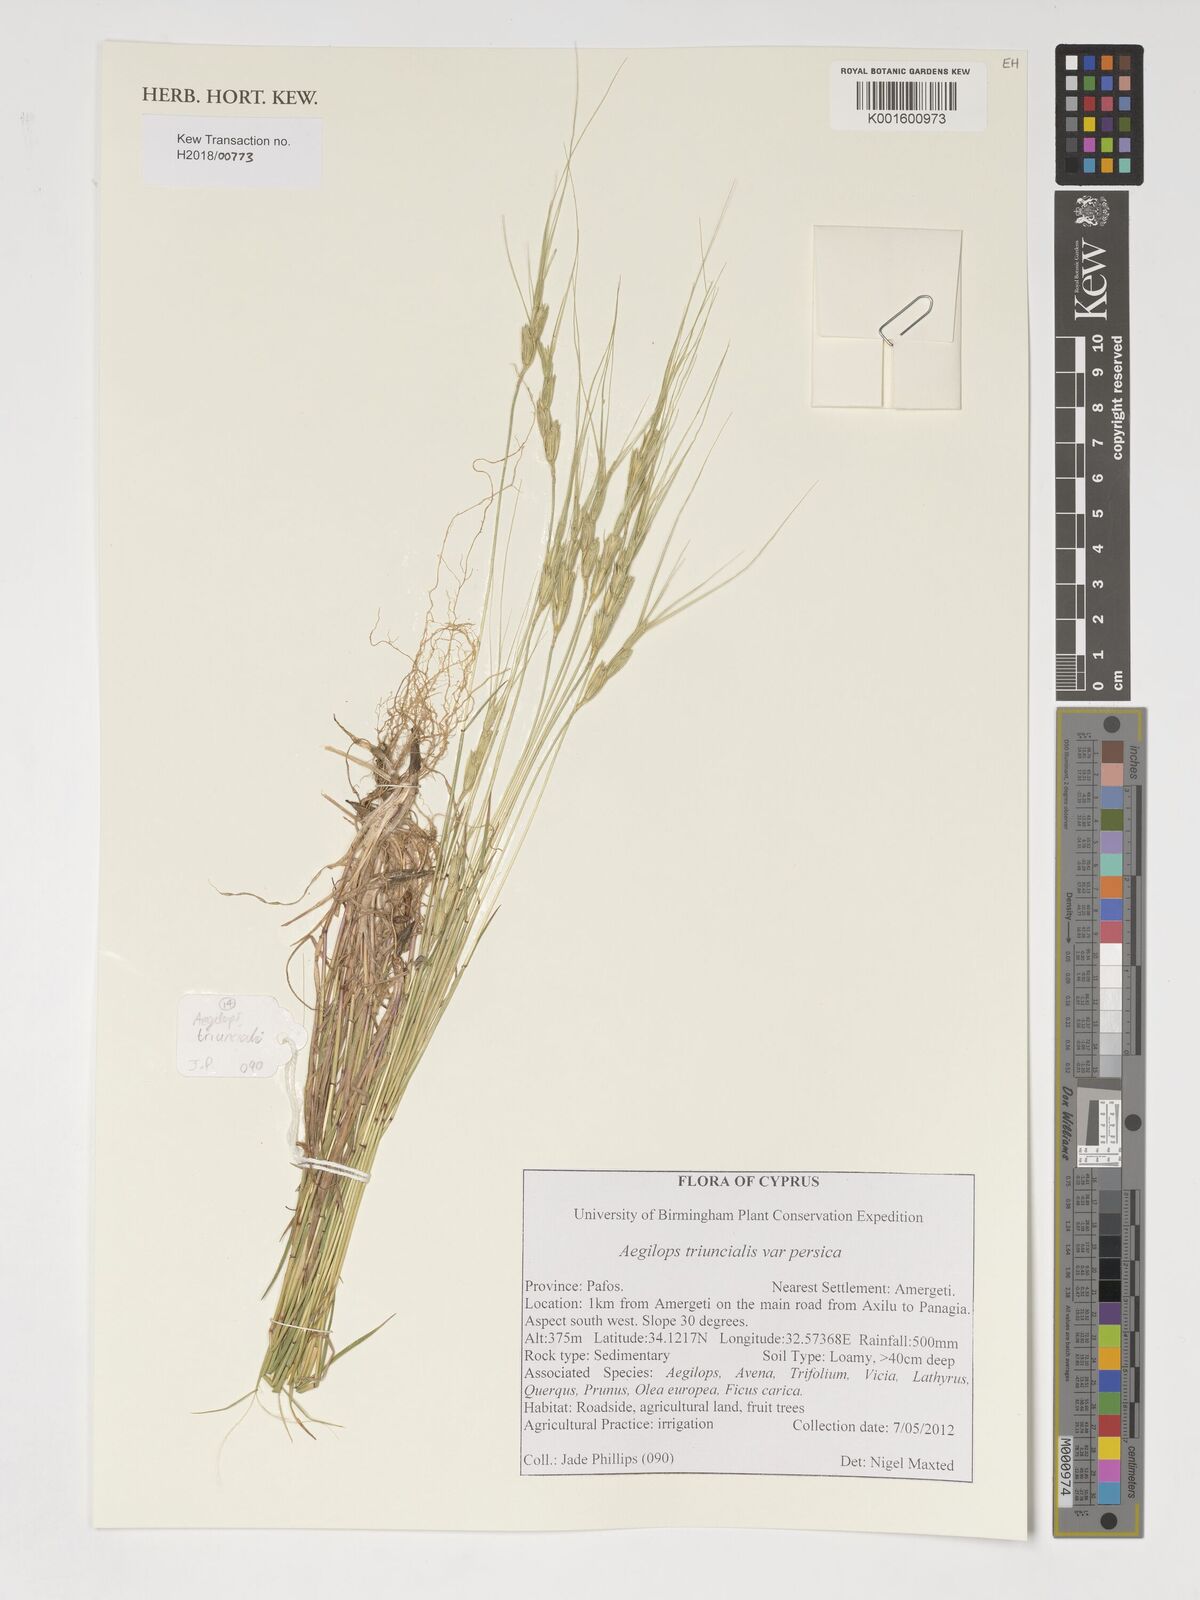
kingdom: Plantae
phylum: Tracheophyta
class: Liliopsida
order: Poales
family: Poaceae
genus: Aegilops
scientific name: Aegilops triuncialis
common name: Barb goat grass
